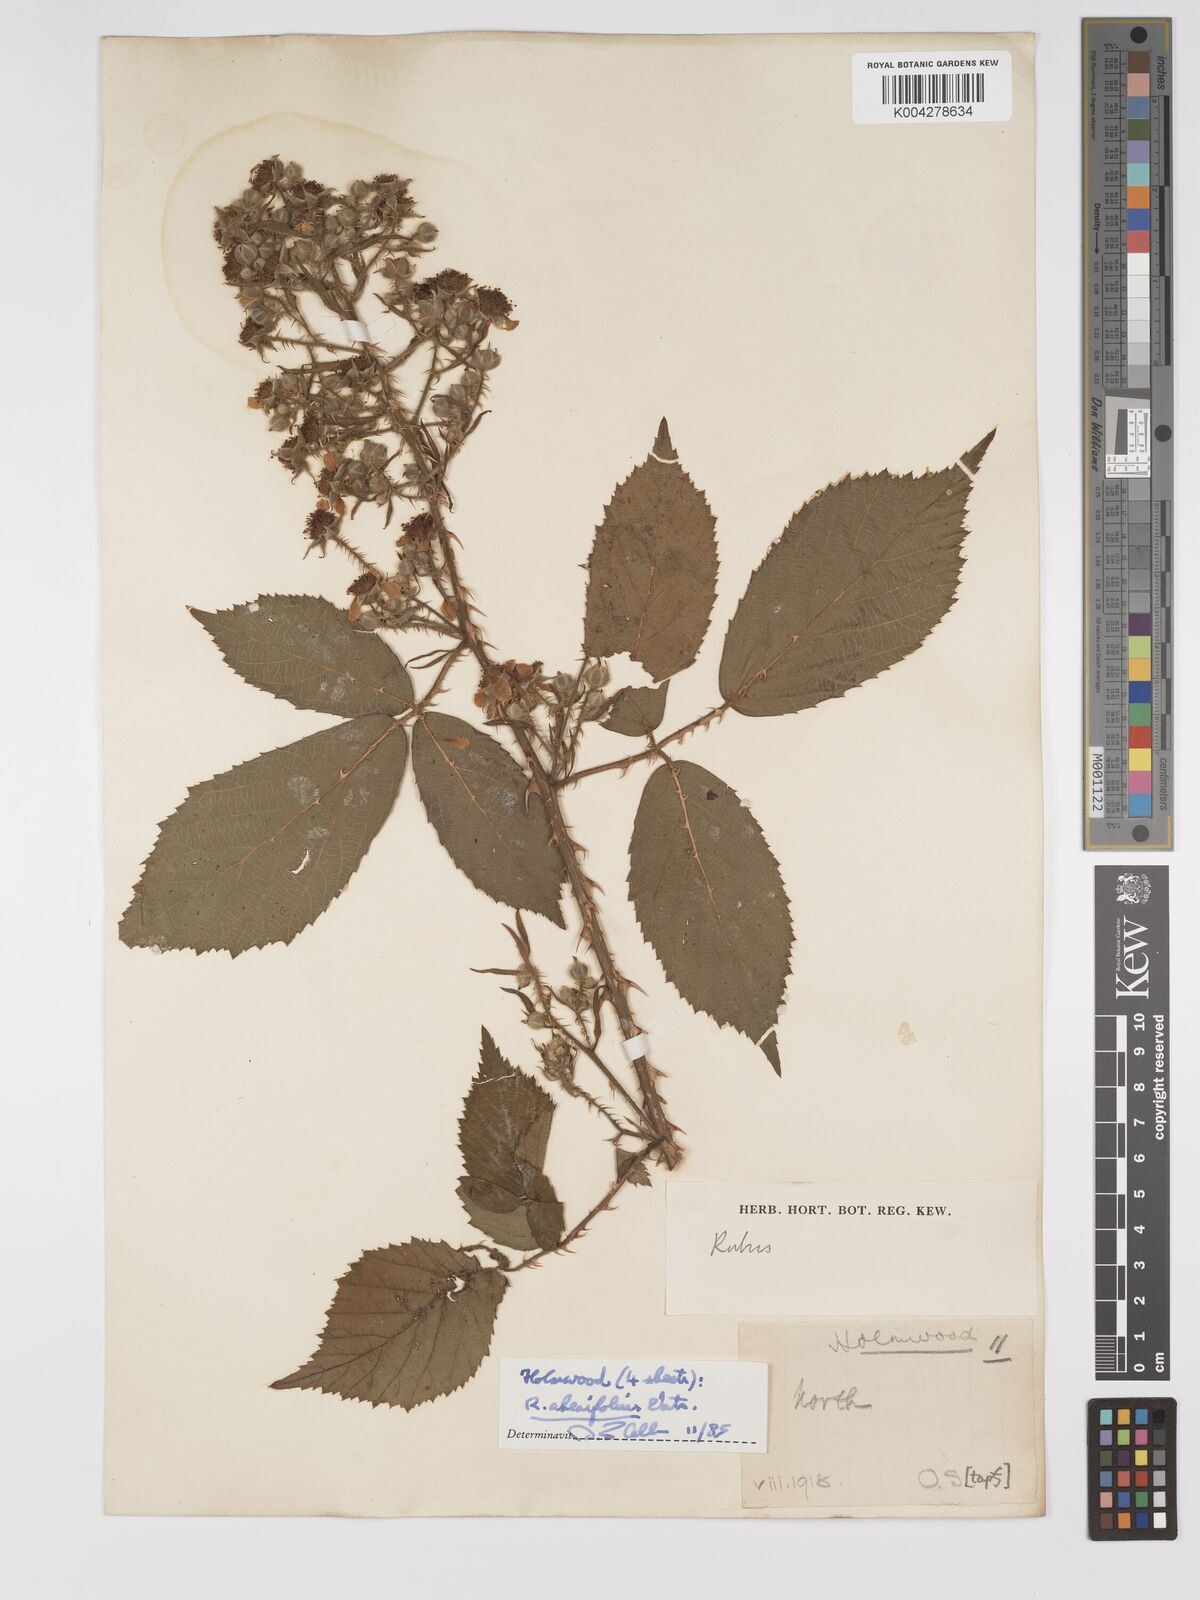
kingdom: Plantae
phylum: Tracheophyta
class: Magnoliopsida
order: Rosales
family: Rosaceae
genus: Rubus
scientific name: Rubus ahenifolius
